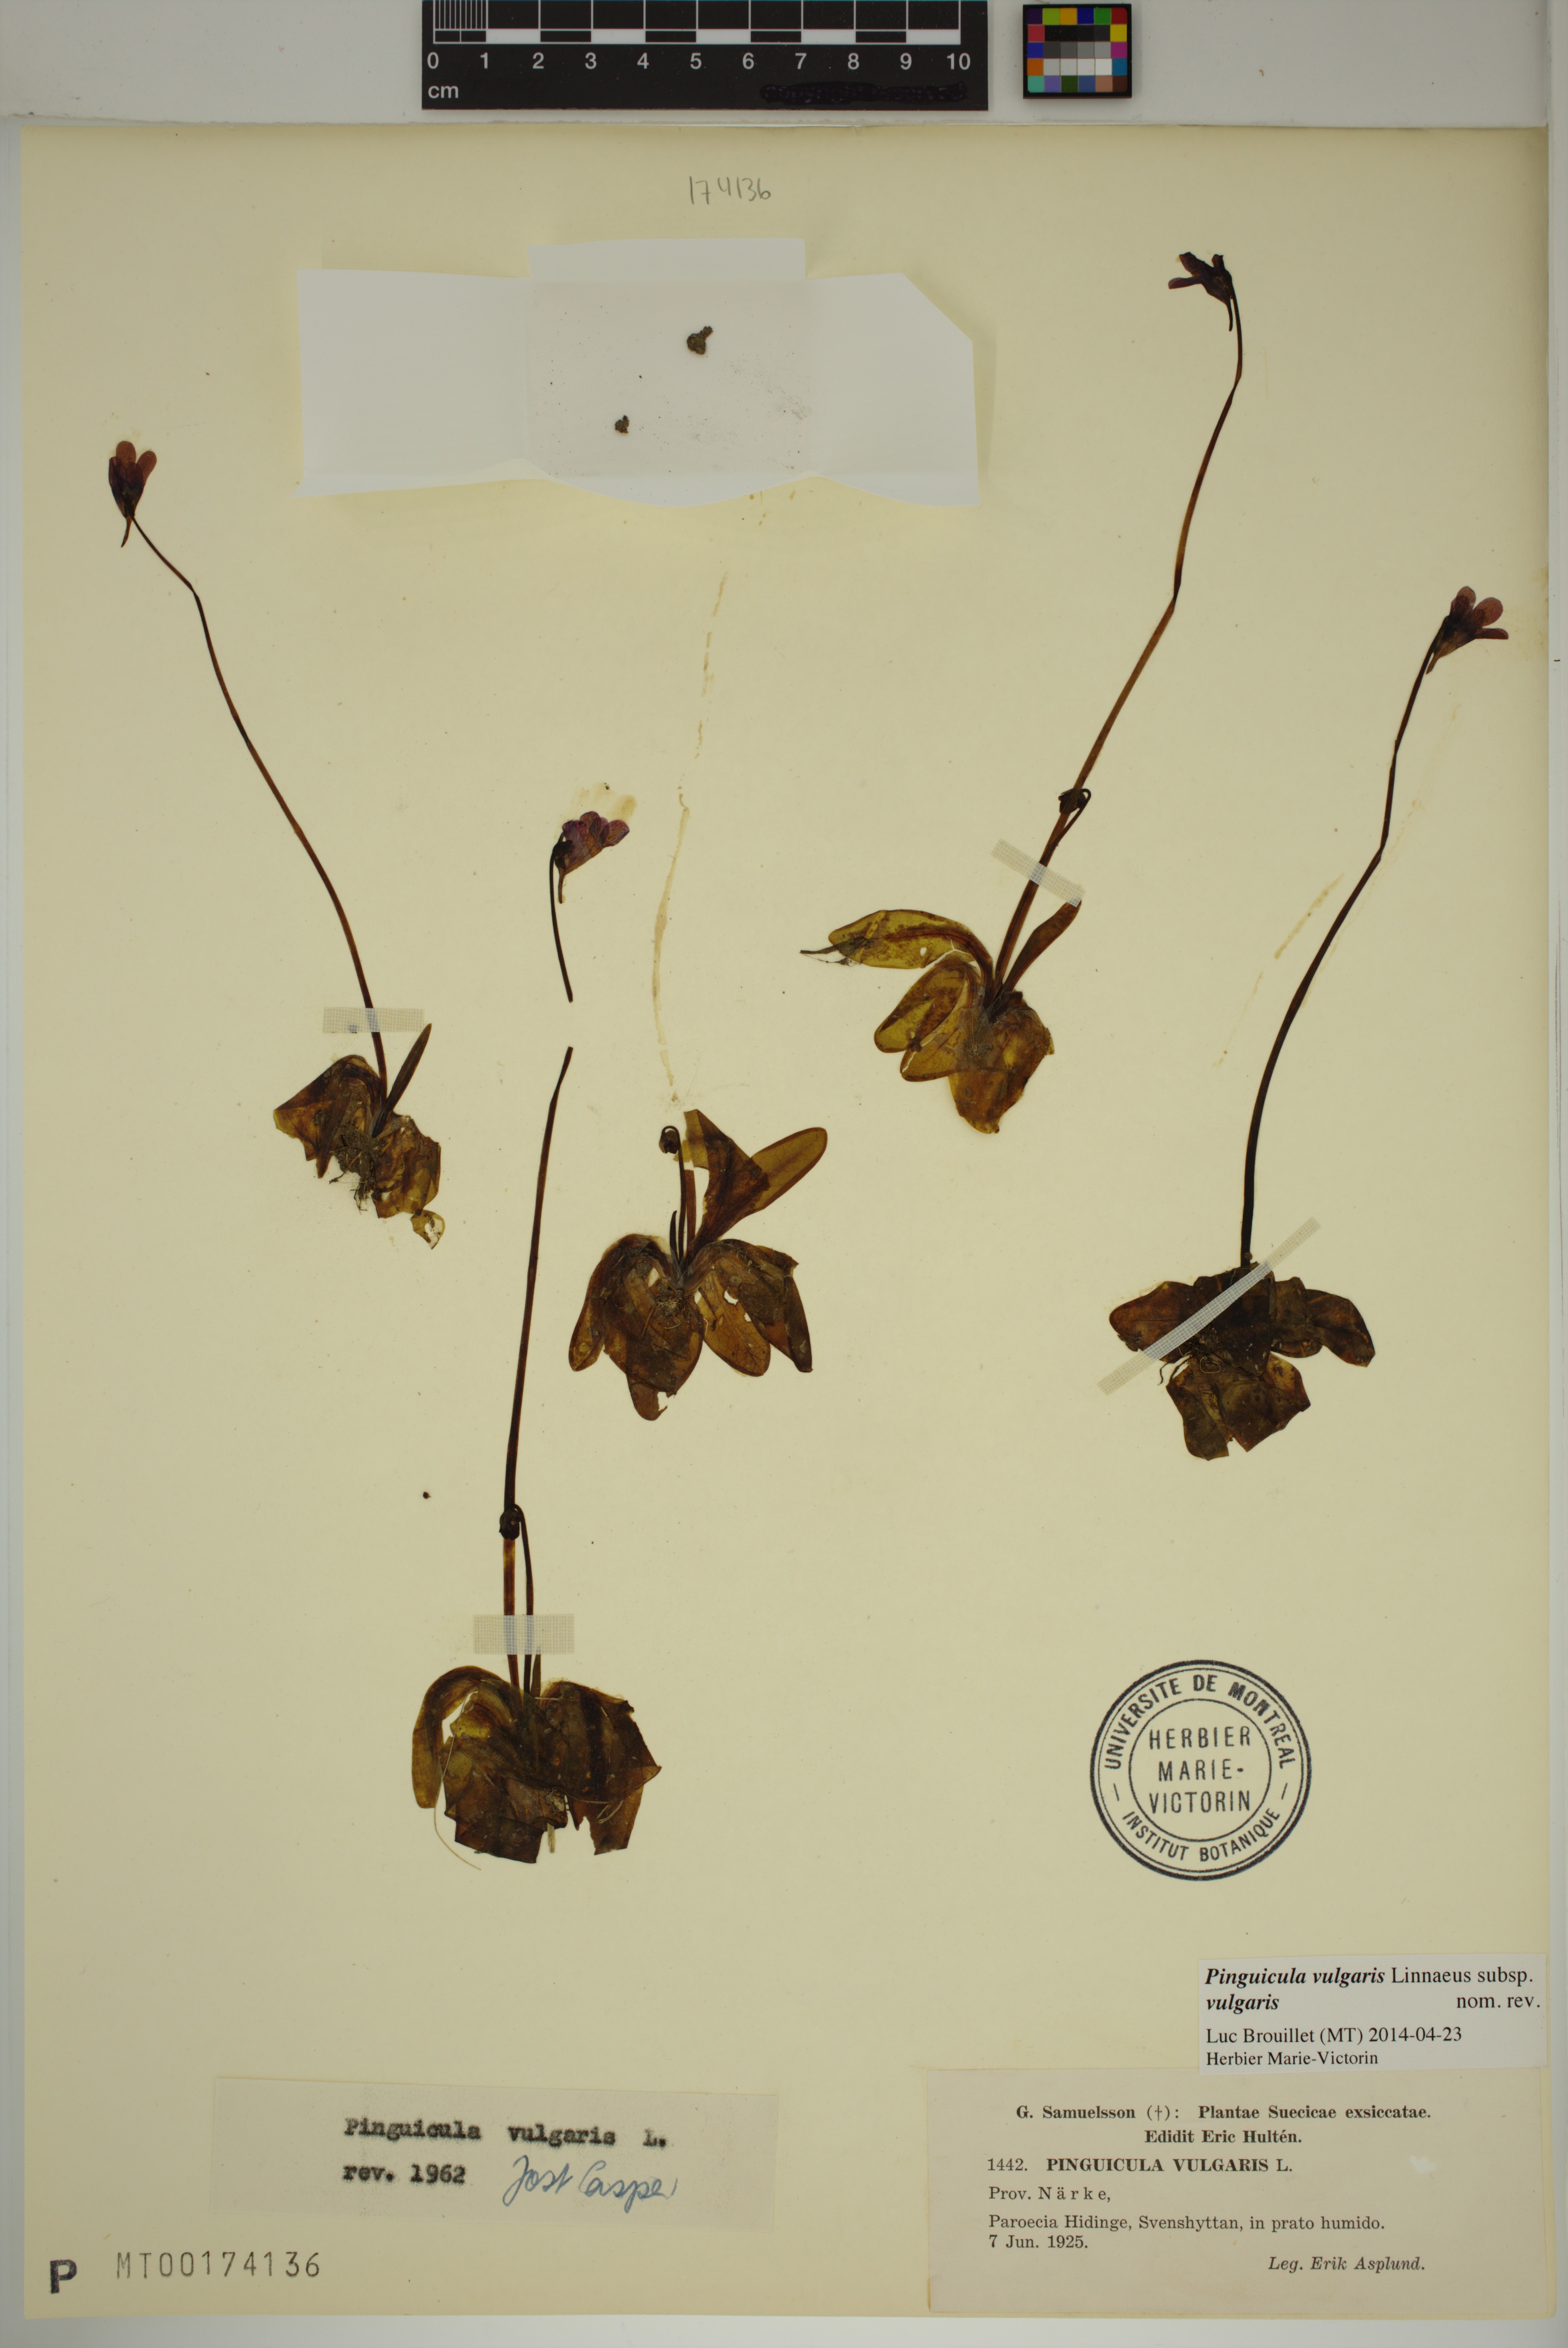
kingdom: Plantae
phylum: Tracheophyta
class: Magnoliopsida
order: Lamiales
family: Lentibulariaceae
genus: Pinguicula
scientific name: Pinguicula vulgaris
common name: Common butterwort
